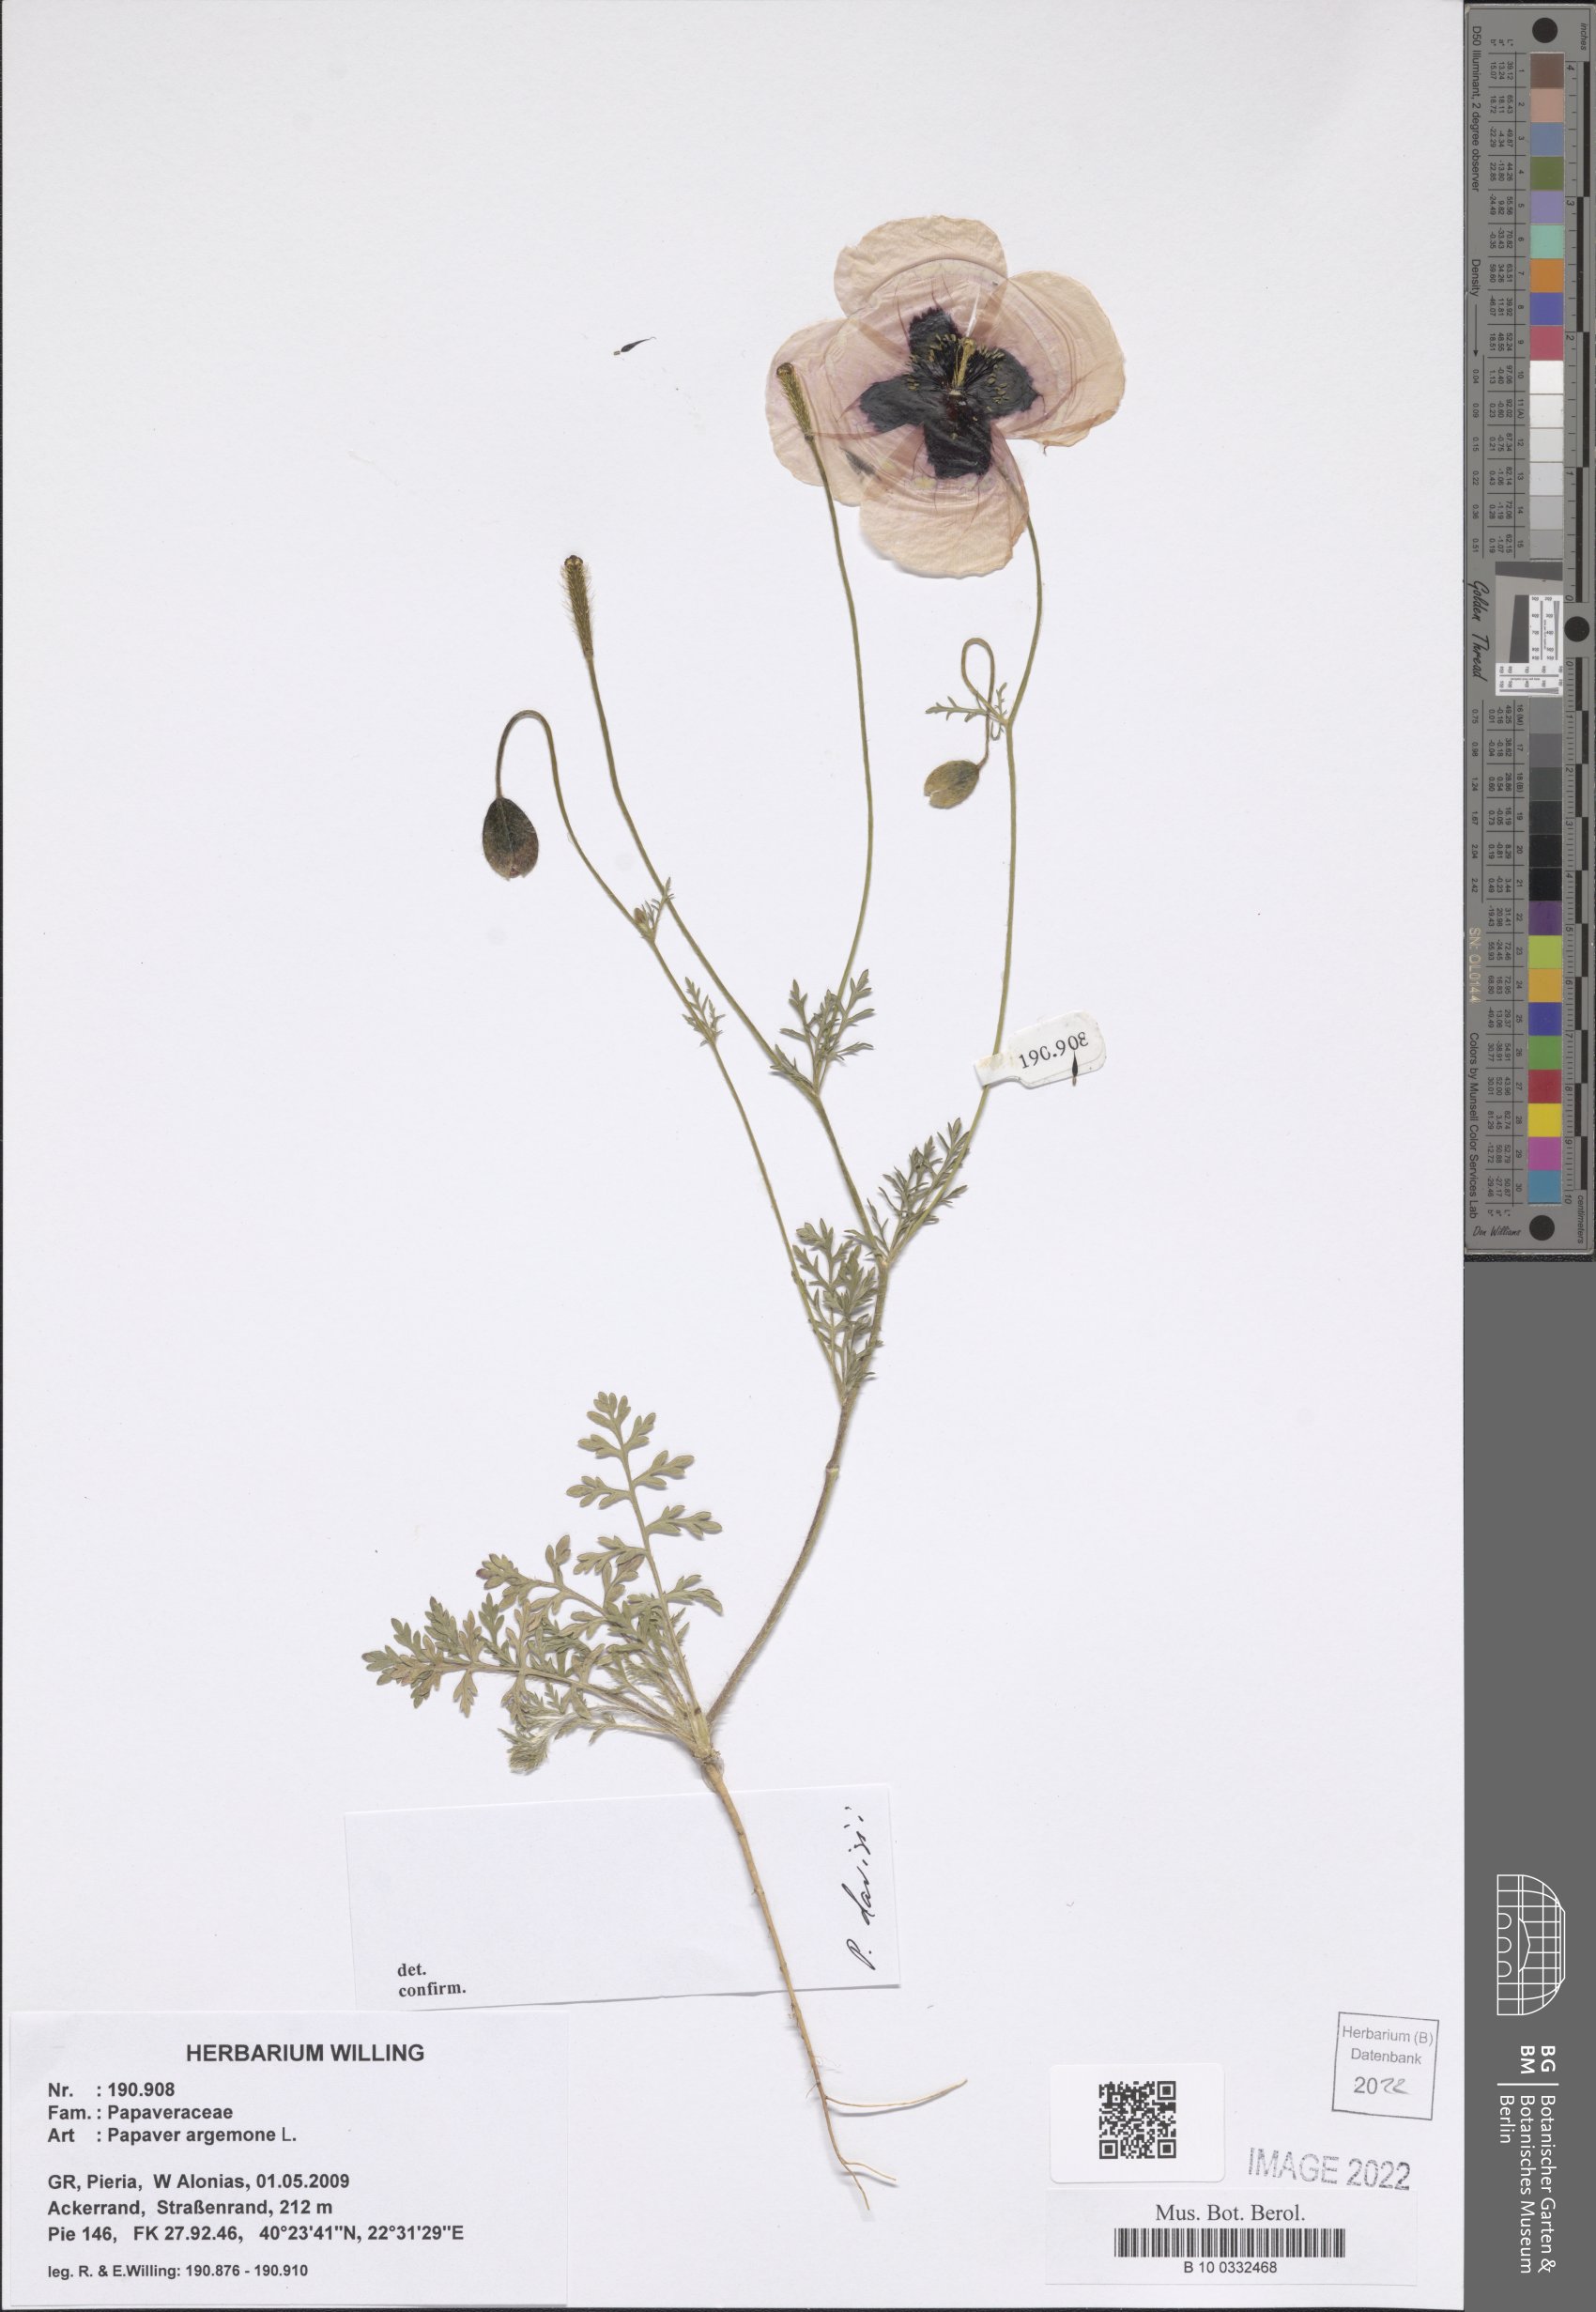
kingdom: Plantae
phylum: Tracheophyta
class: Magnoliopsida
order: Ranunculales
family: Papaveraceae
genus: Roemeria
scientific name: Roemeria argemone
